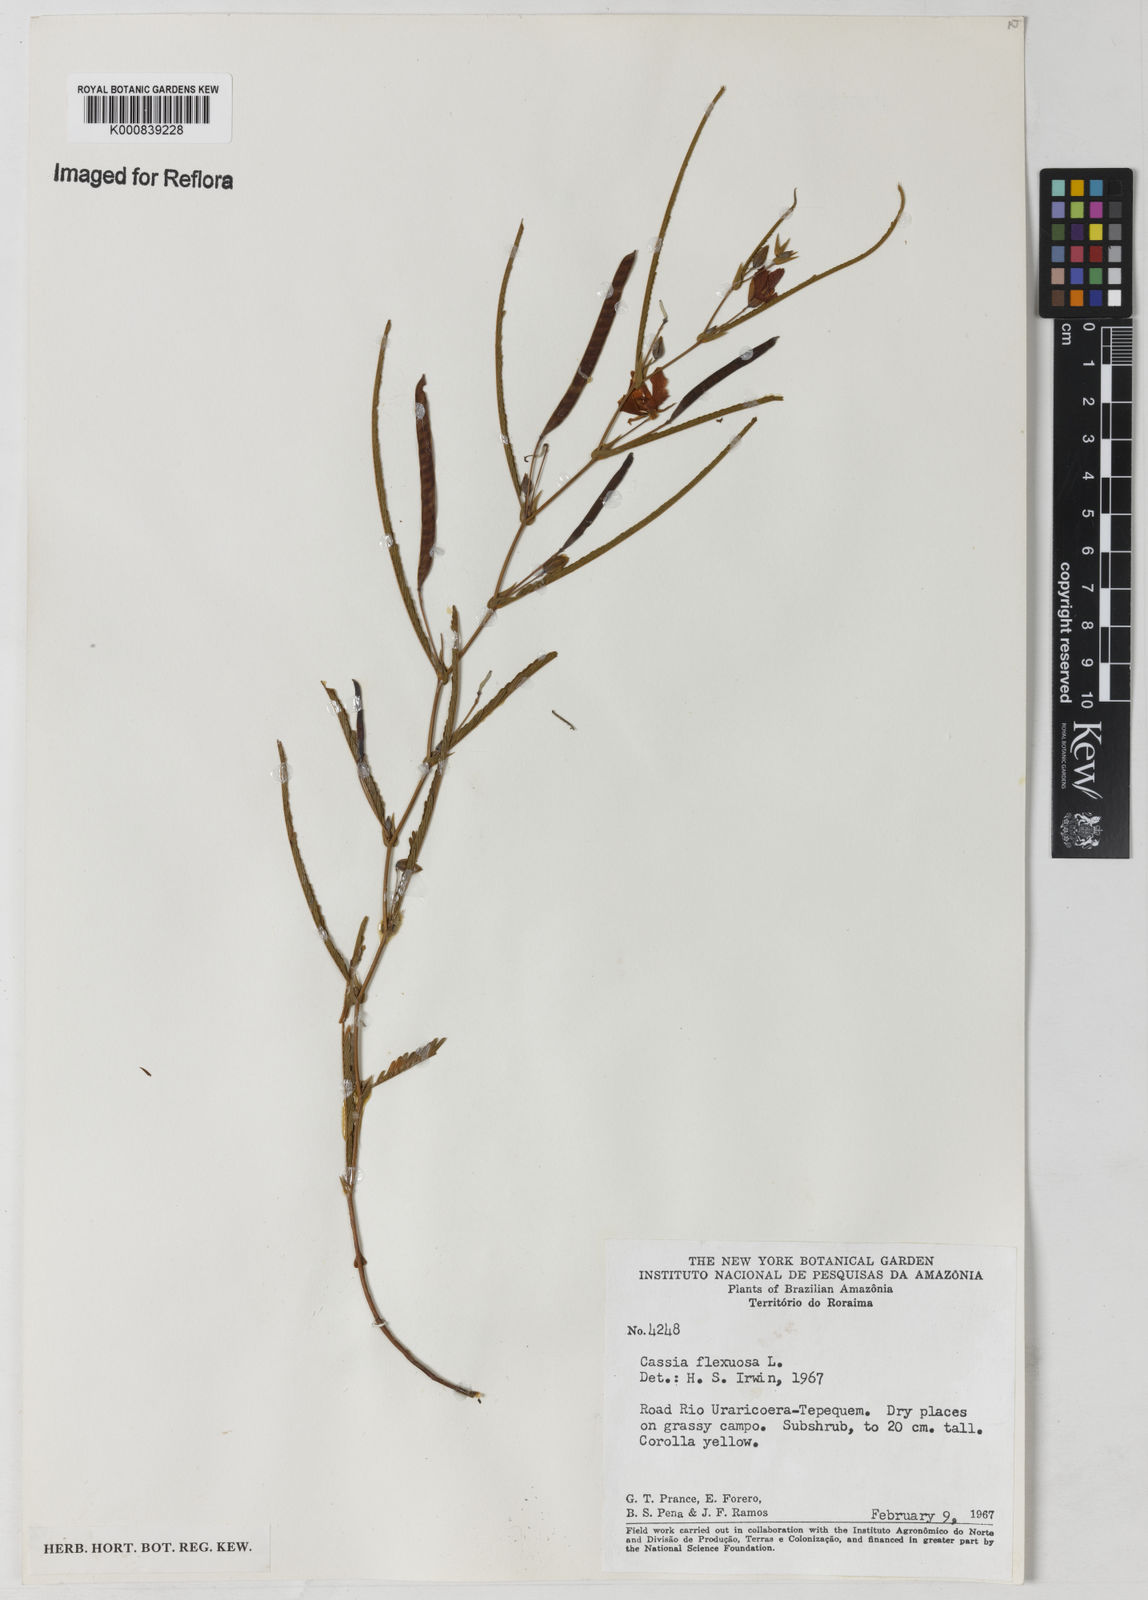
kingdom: Plantae
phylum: Tracheophyta
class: Magnoliopsida
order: Fabales
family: Fabaceae
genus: Chamaecrista
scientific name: Chamaecrista flexuosa
